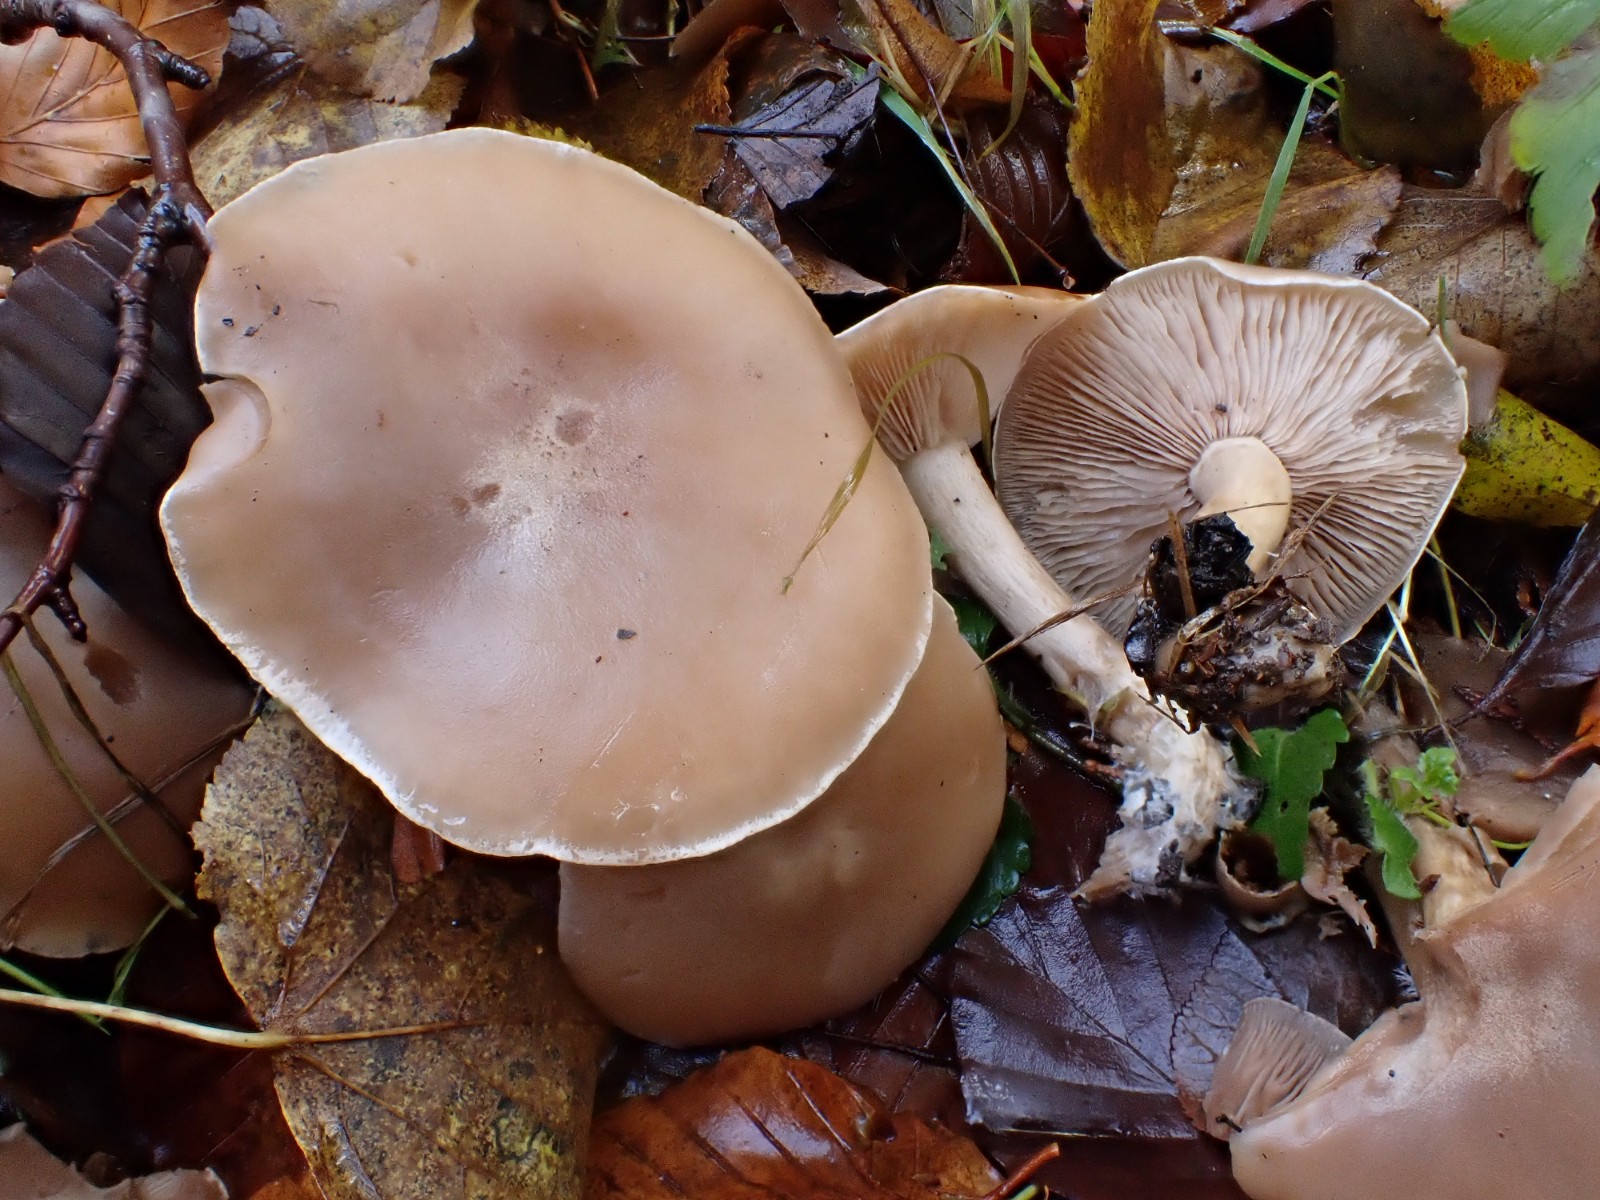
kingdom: Fungi
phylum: Basidiomycota
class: Agaricomycetes
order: Agaricales
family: Tricholomataceae
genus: Lepista
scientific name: Lepista irina
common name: violduftende hekseringshat
